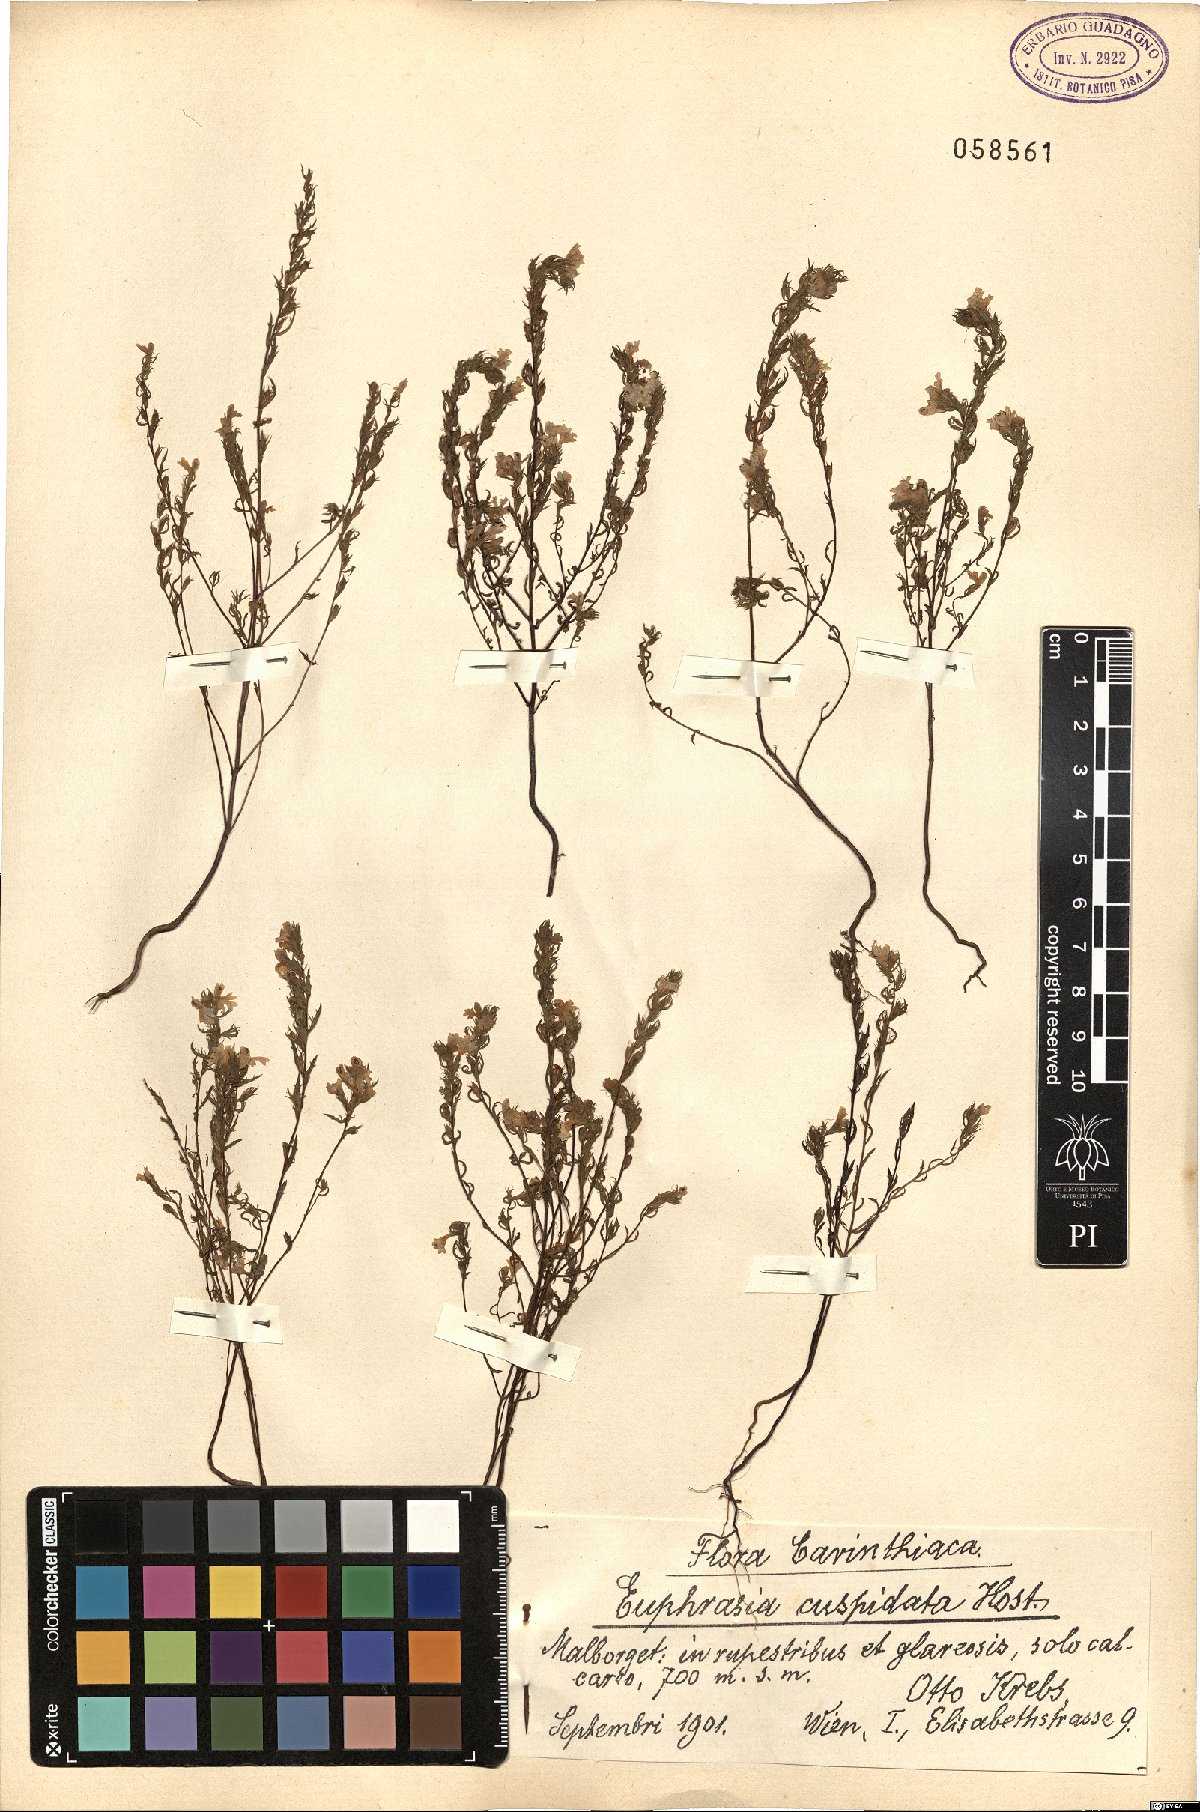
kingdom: Plantae
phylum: Tracheophyta
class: Magnoliopsida
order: Lamiales
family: Orobanchaceae
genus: Euphrasia
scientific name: Euphrasia cuspidata
